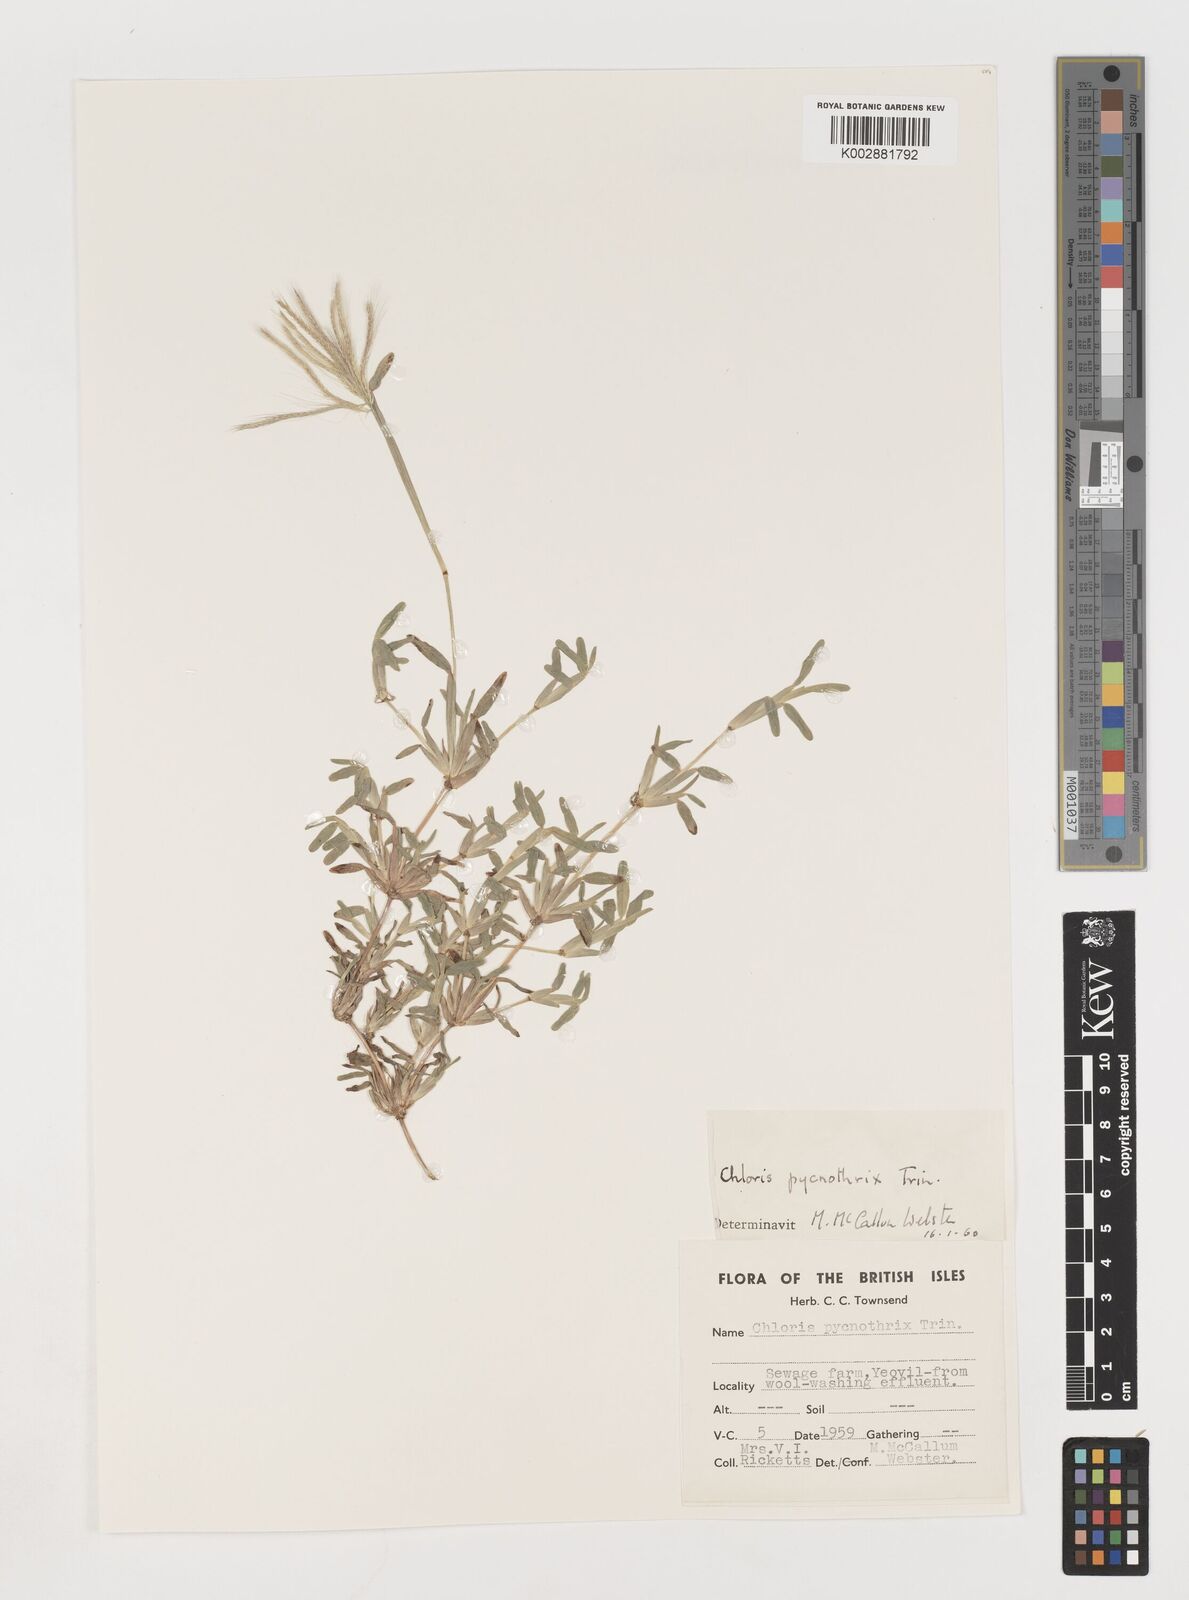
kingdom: Plantae
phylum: Tracheophyta
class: Liliopsida
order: Poales
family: Poaceae
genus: Chloris
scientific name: Chloris pycnothrix
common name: Spiderweb chloris
